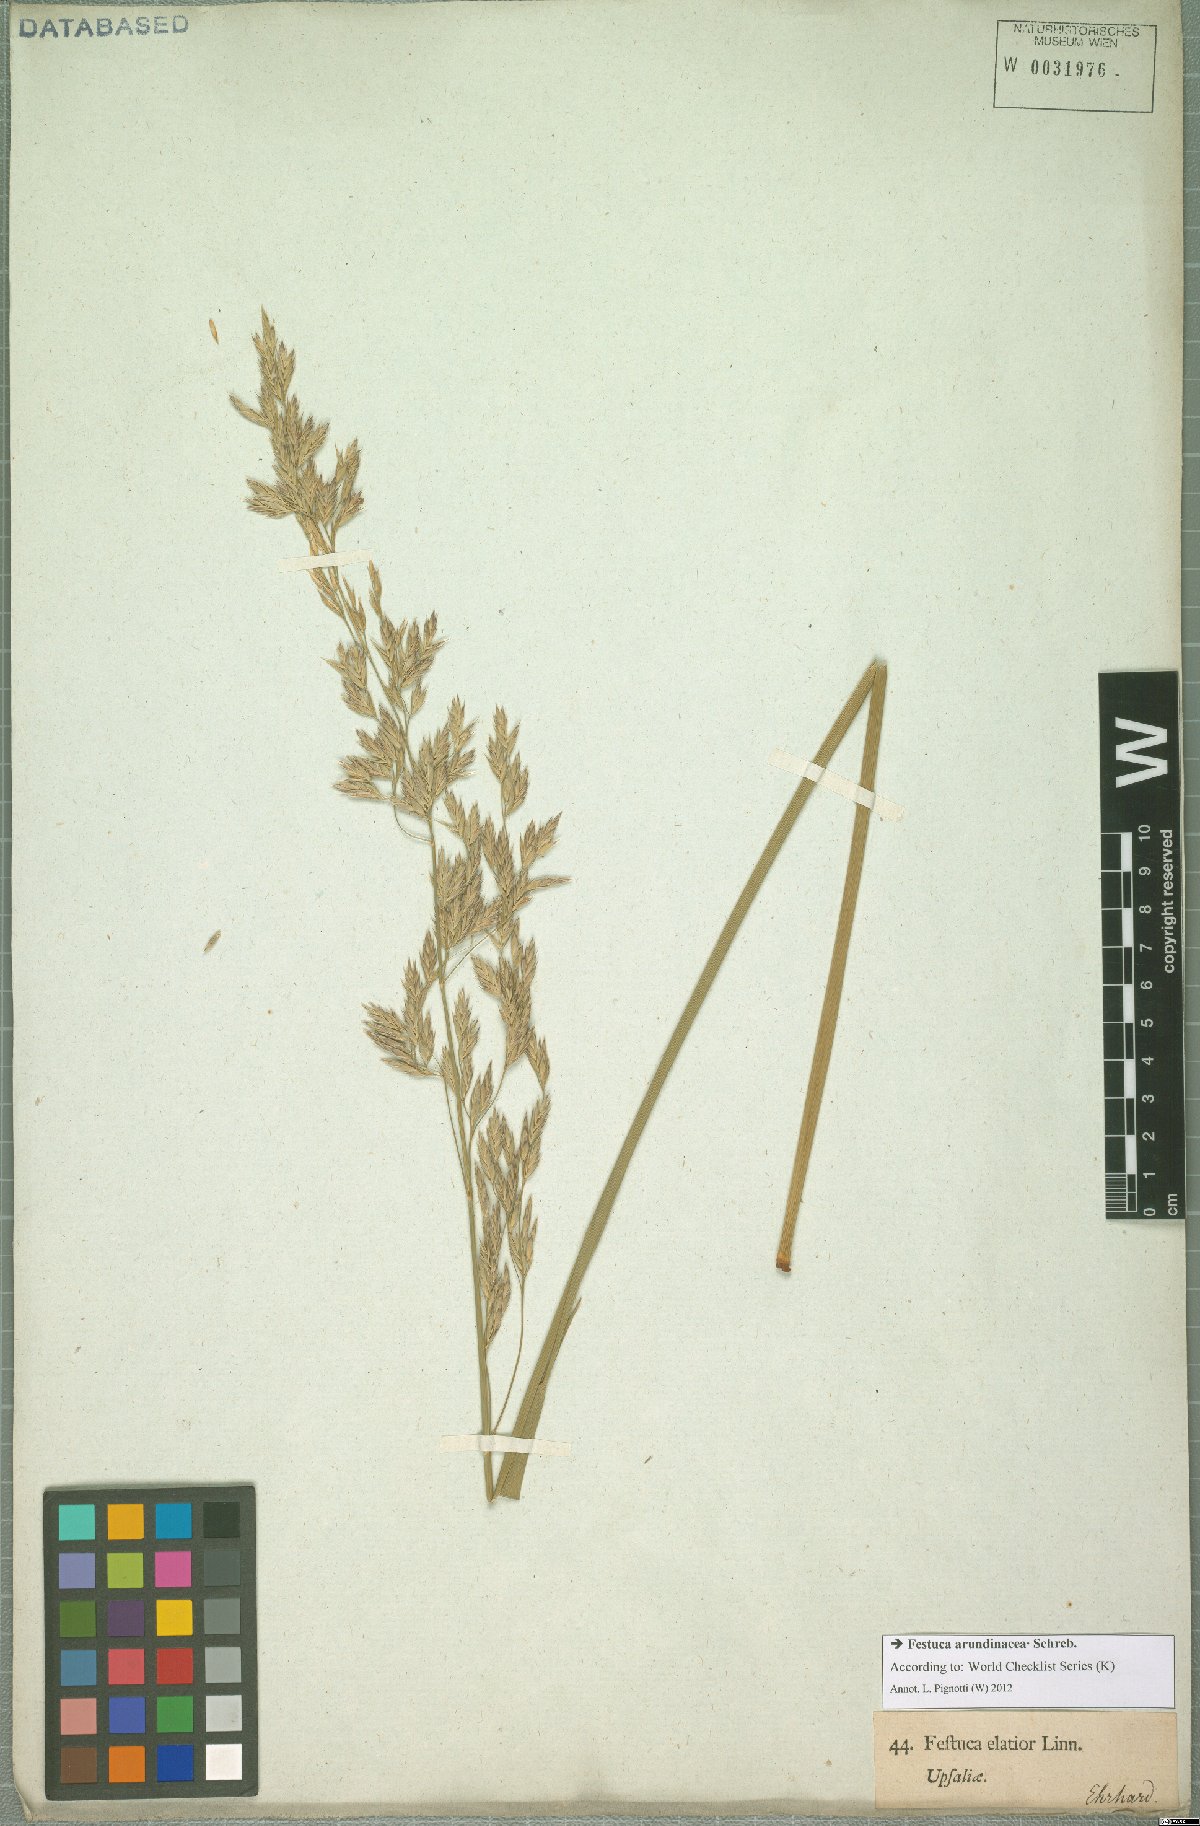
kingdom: Plantae
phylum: Tracheophyta
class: Liliopsida
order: Poales
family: Poaceae
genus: Lolium
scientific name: Lolium arundinaceum
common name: Reed fescue
